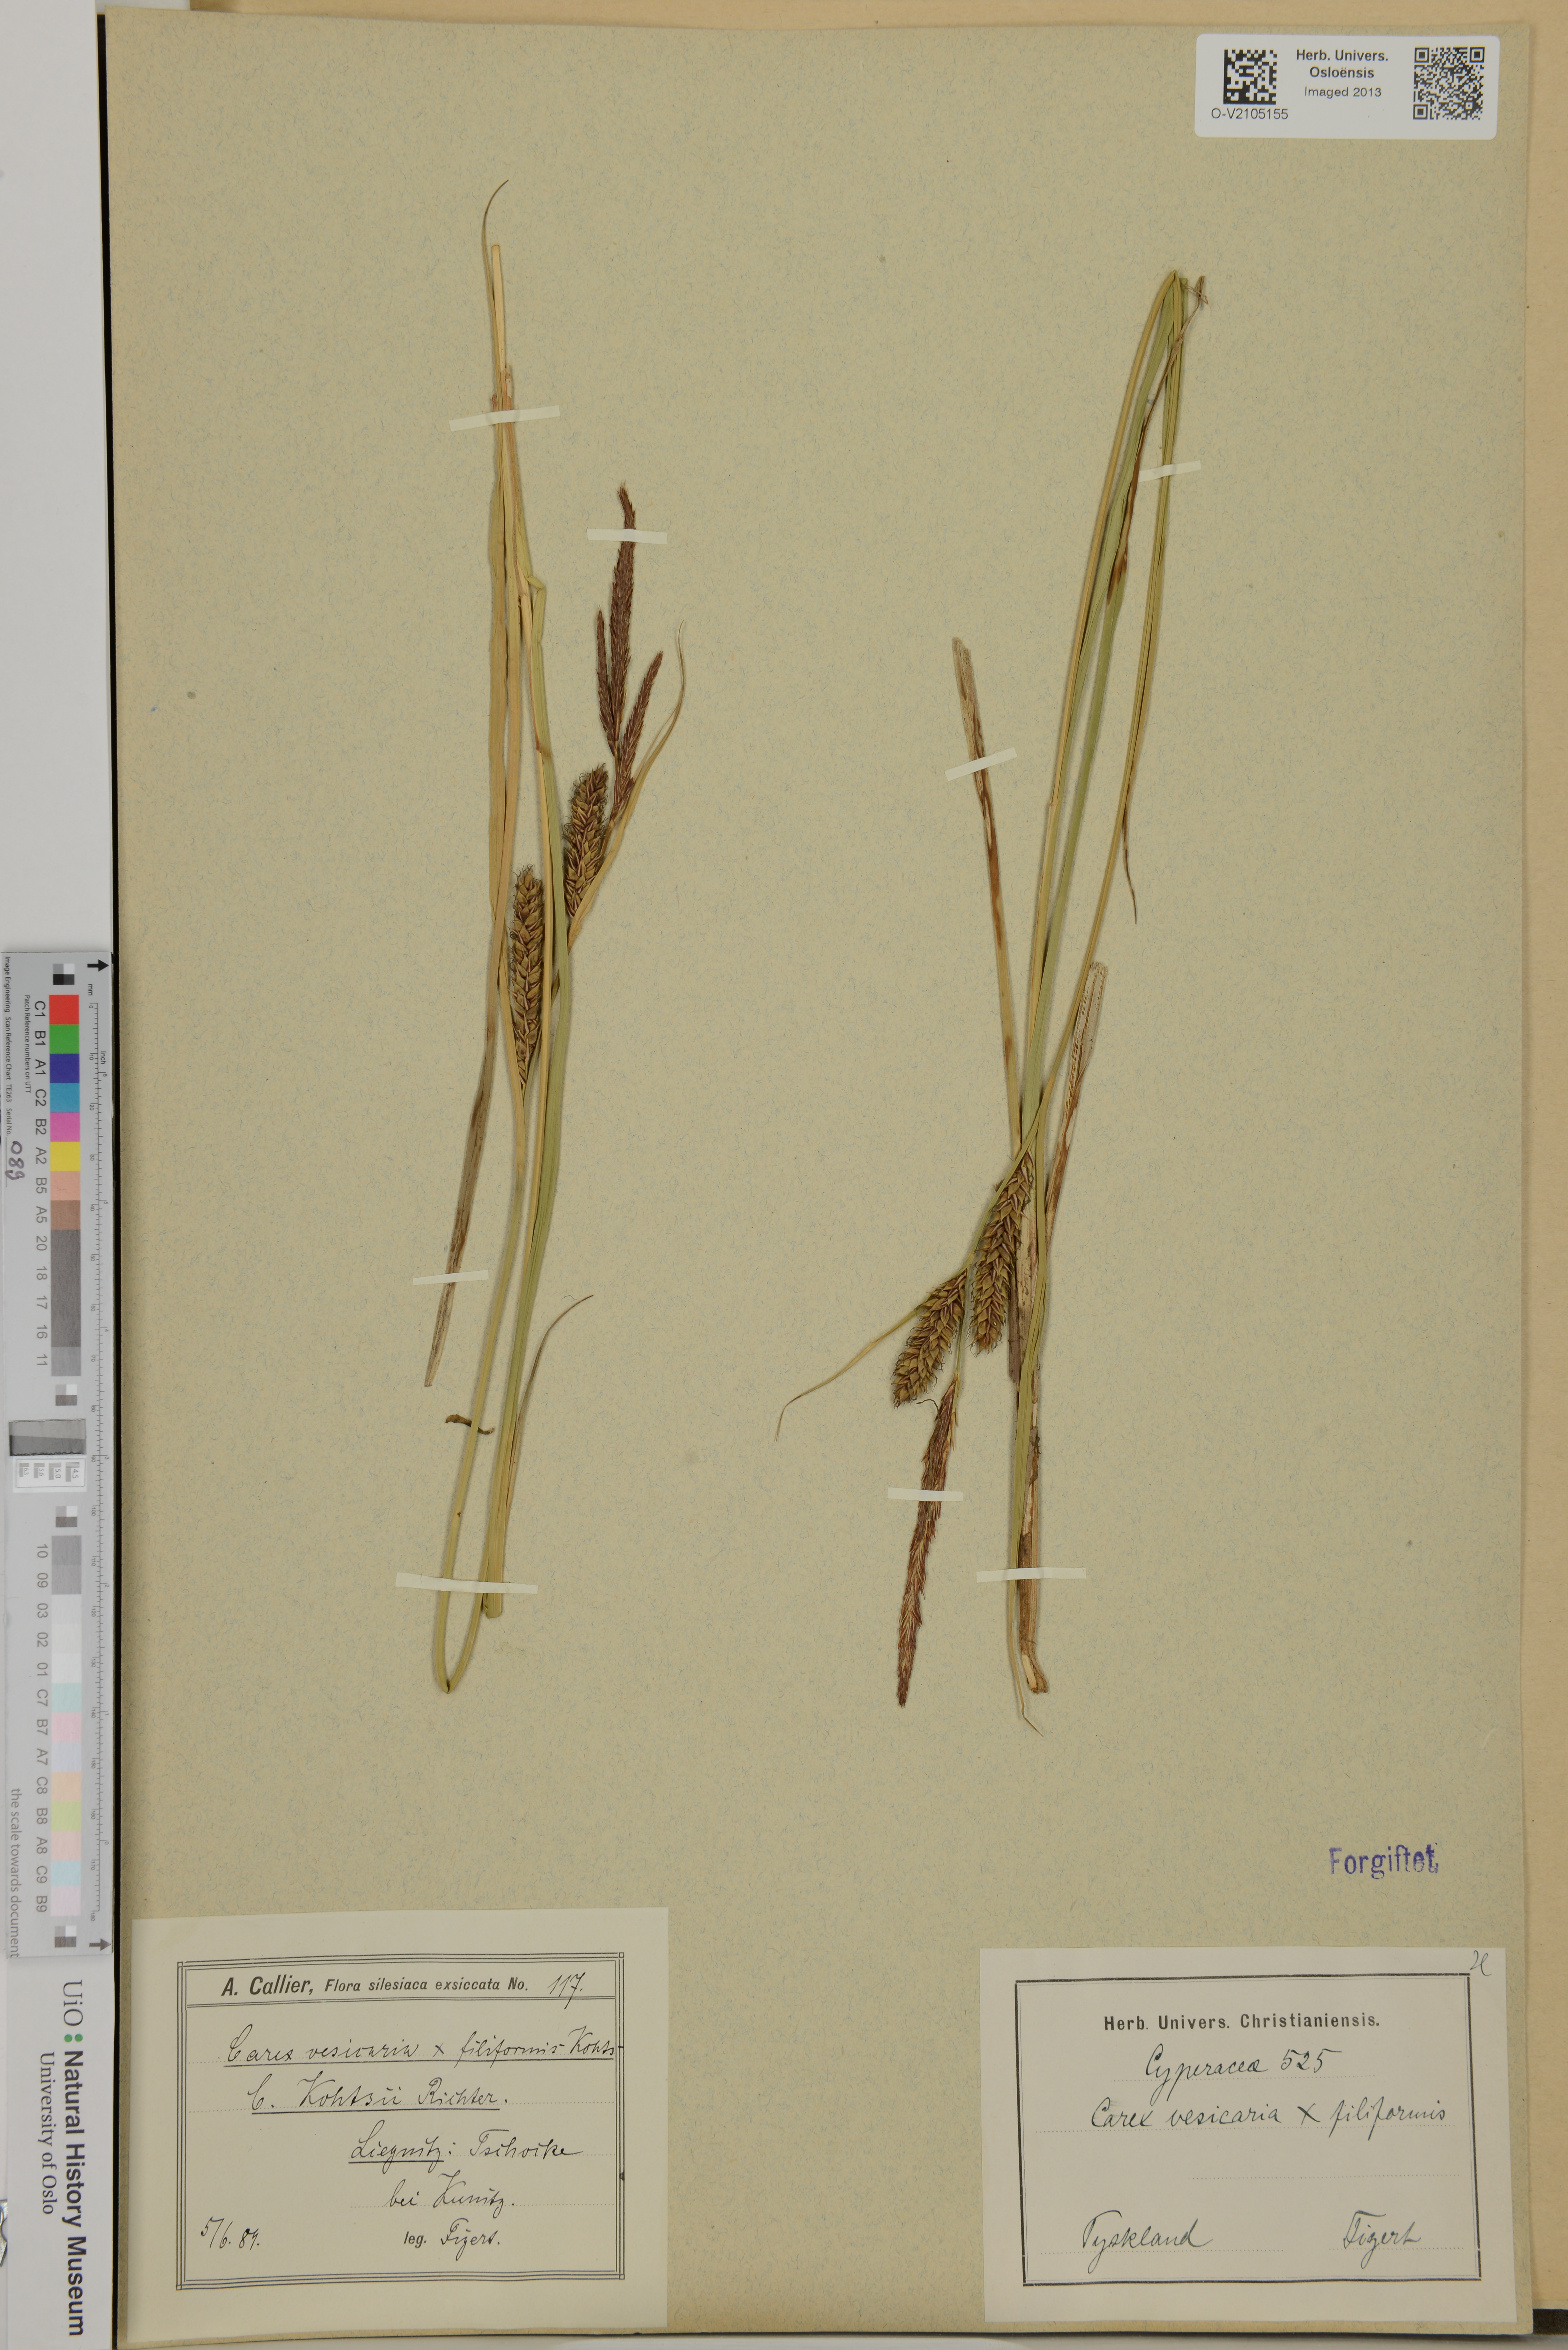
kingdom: Plantae
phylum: Tracheophyta
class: Liliopsida
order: Poales
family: Cyperaceae
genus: Carex
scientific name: Carex
